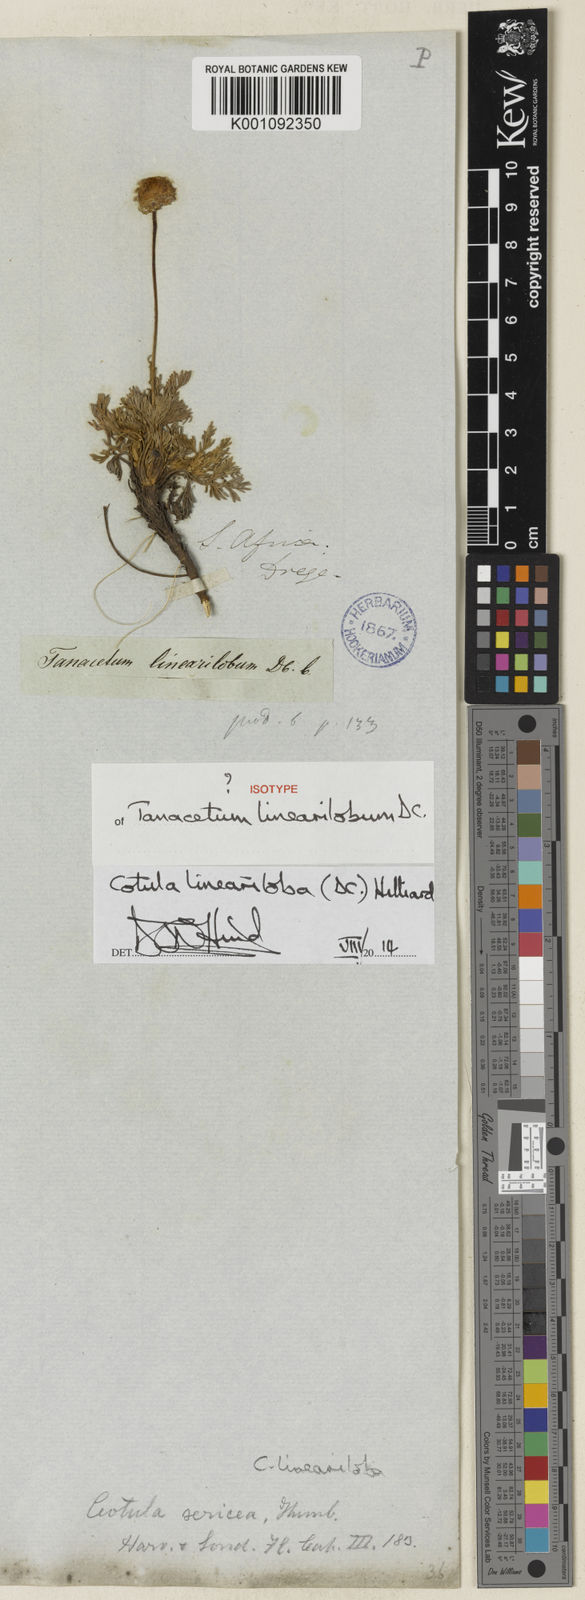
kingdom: Plantae
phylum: Tracheophyta
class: Magnoliopsida
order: Asterales
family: Asteraceae
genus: Cotula
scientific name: Cotula lineariloba
